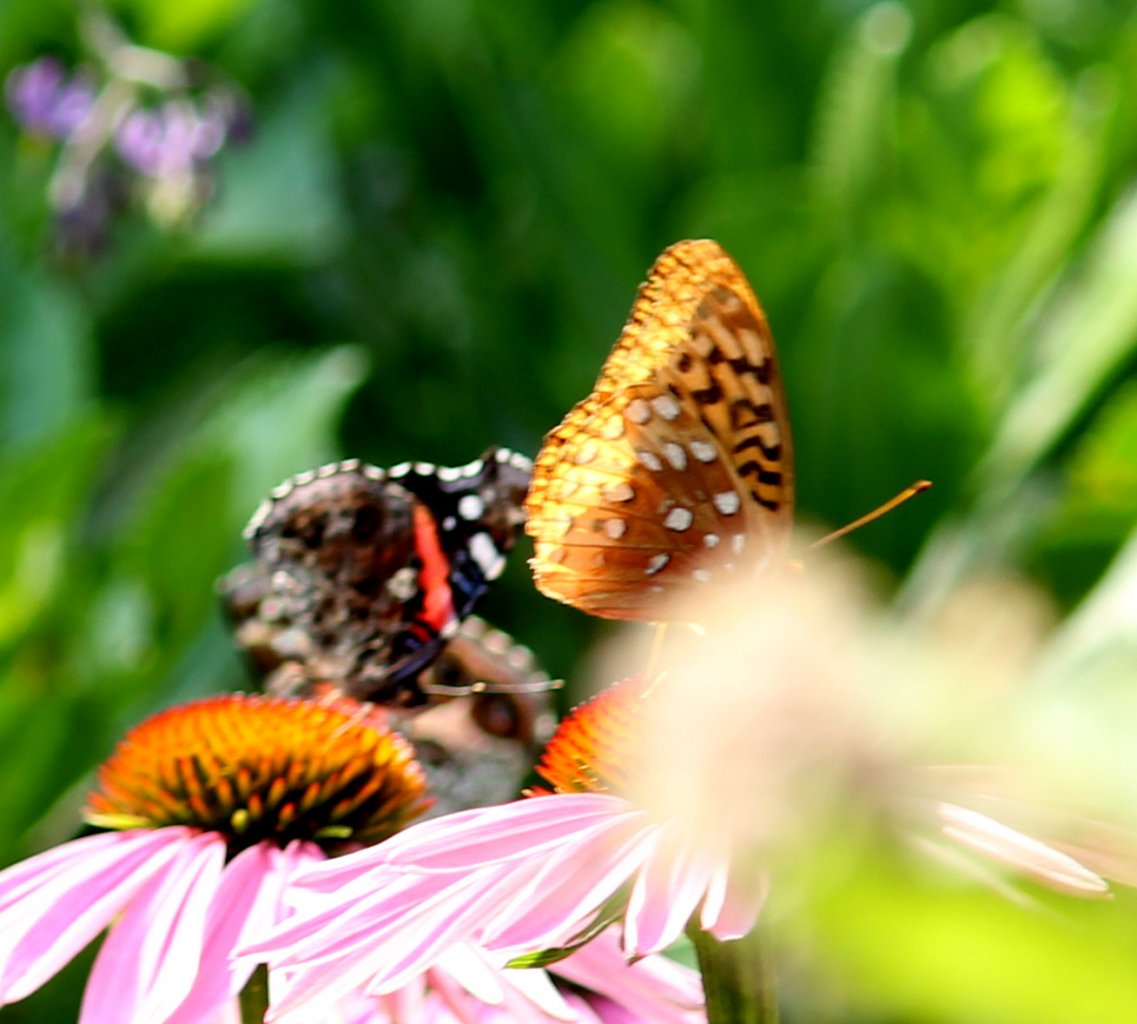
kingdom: Animalia
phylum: Arthropoda
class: Insecta
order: Lepidoptera
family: Nymphalidae
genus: Speyeria
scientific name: Speyeria cybele
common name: Great Spangled Fritillary
